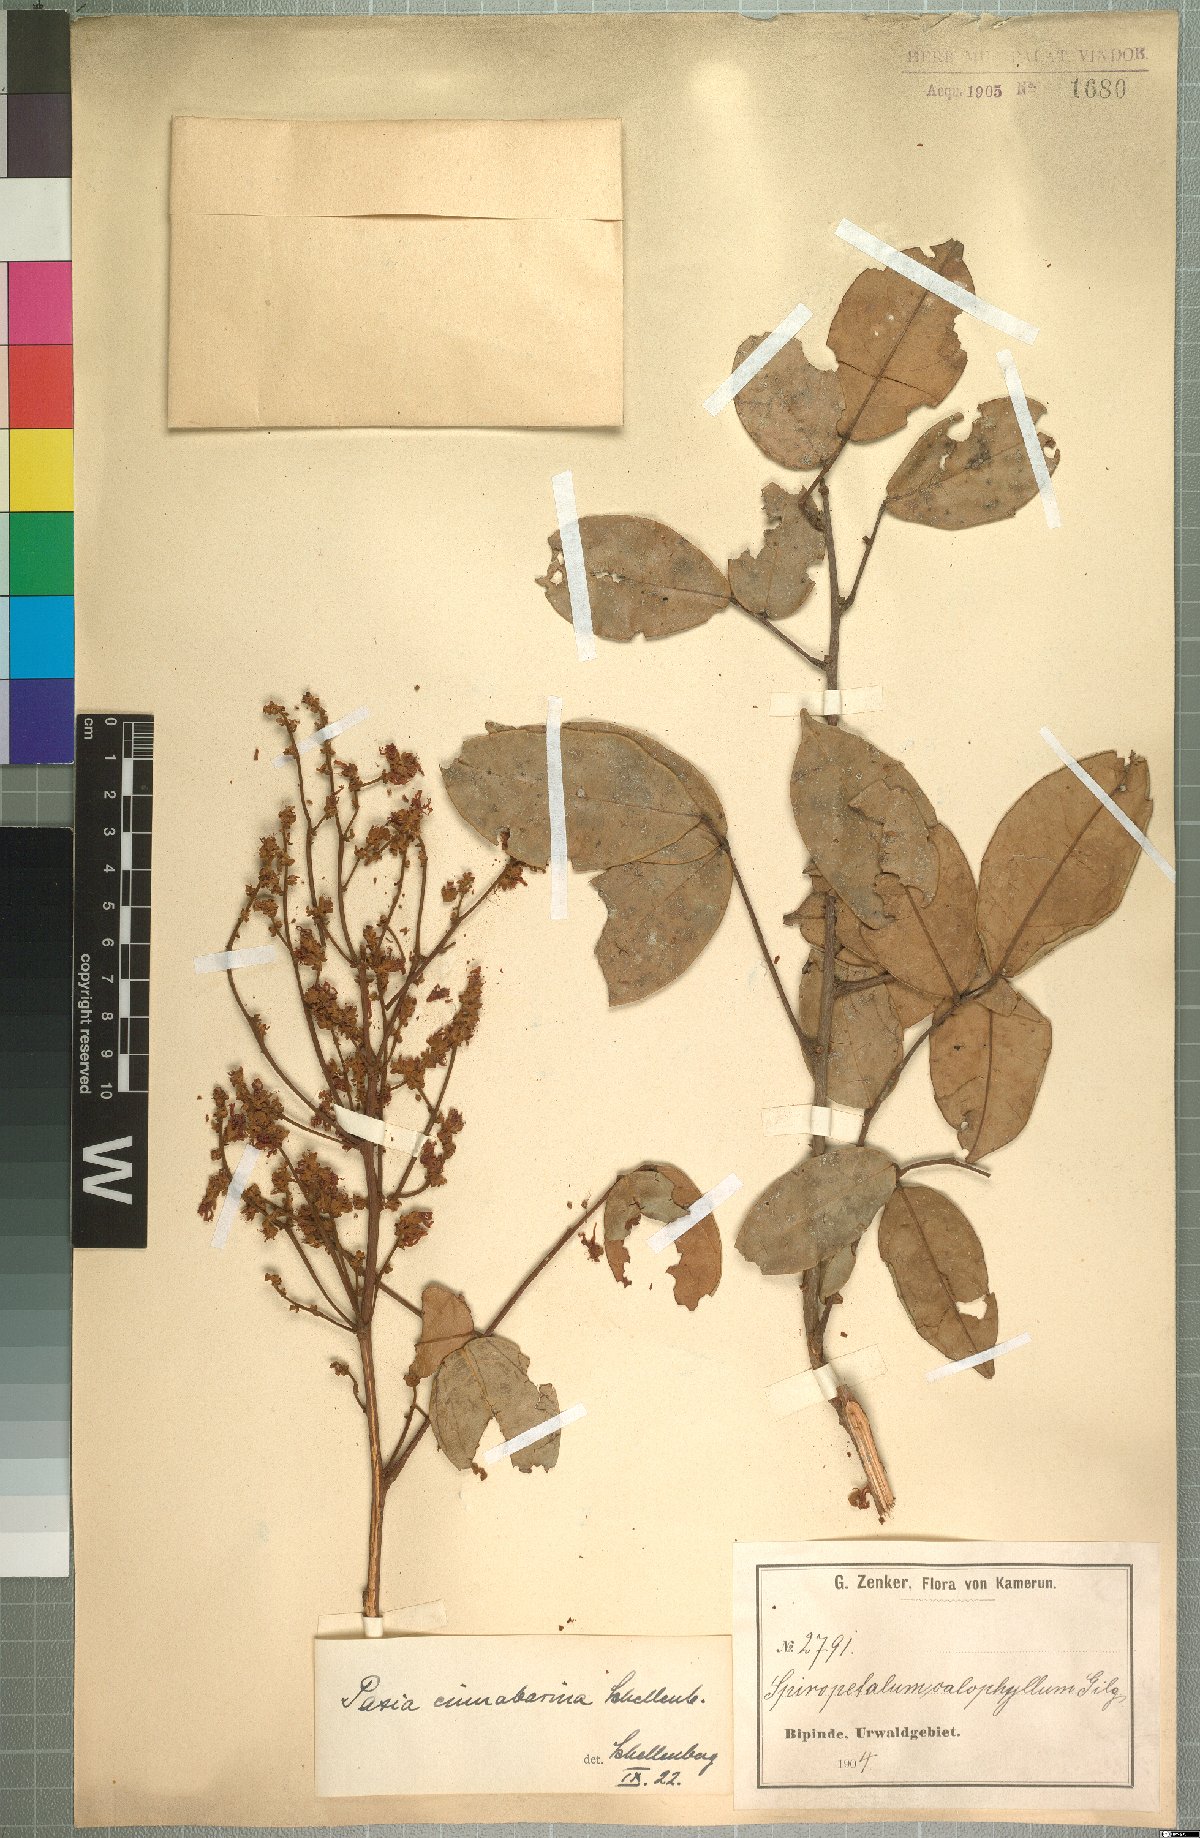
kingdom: Plantae
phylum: Tracheophyta
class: Magnoliopsida
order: Oxalidales
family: Connaraceae
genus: Rourea
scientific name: Rourea myriantha
